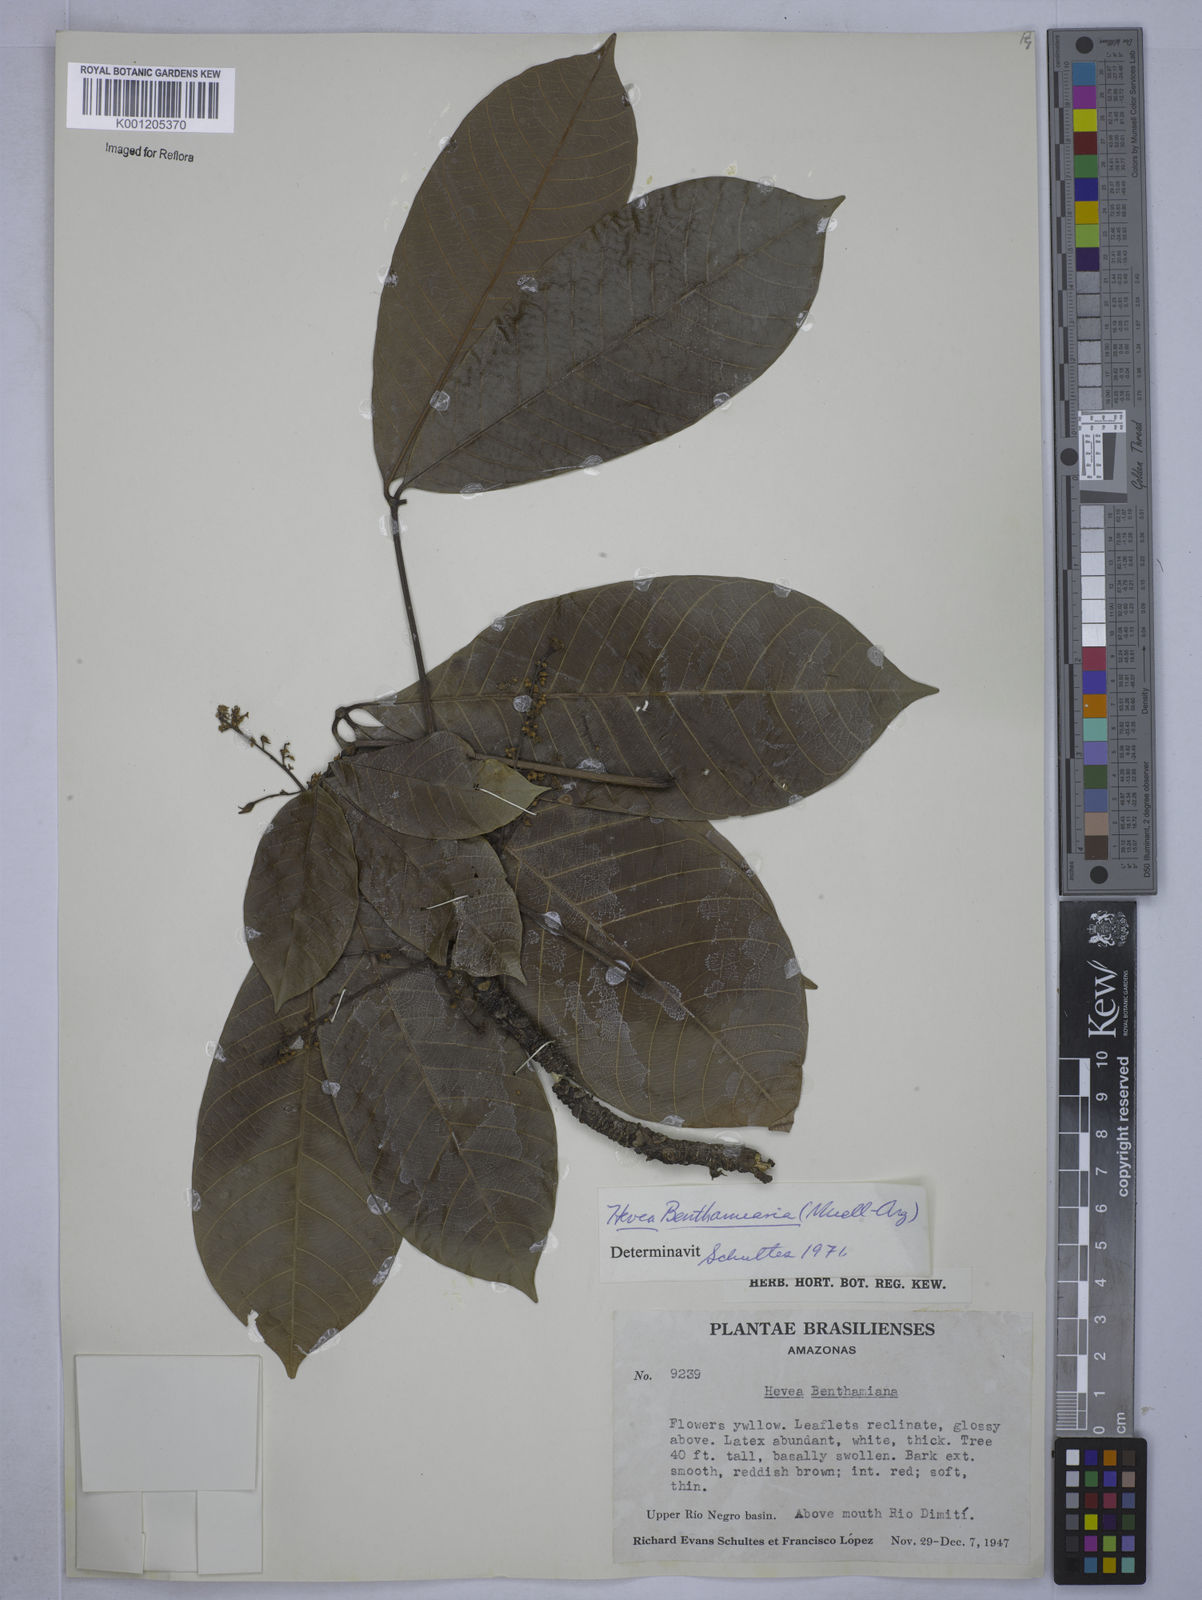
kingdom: Plantae
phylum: Tracheophyta
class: Magnoliopsida
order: Malpighiales
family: Euphorbiaceae
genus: Hevea
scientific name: Hevea
